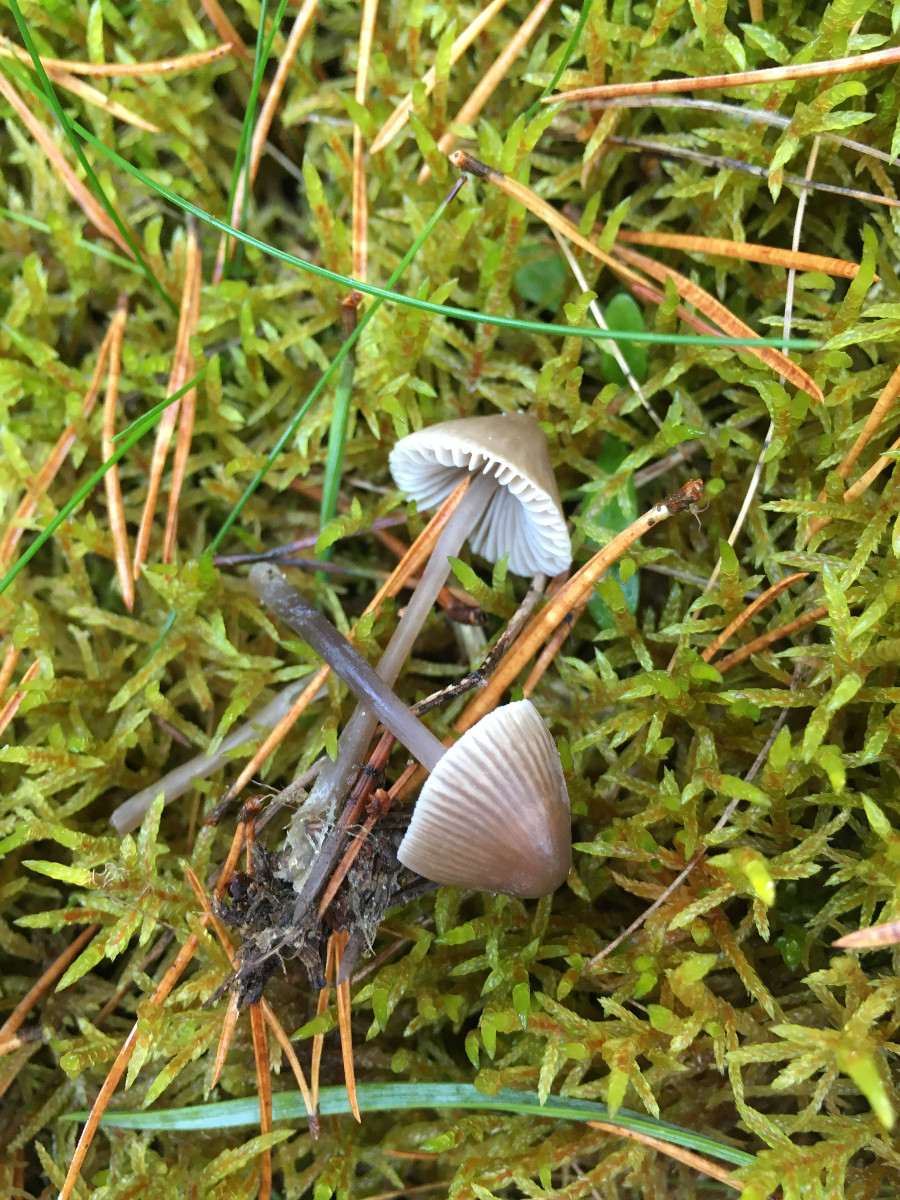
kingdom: Fungi
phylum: Basidiomycota
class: Agaricomycetes
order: Agaricales
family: Mycenaceae
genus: Mycena
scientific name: Mycena leptocephala
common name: klor-huesvamp
